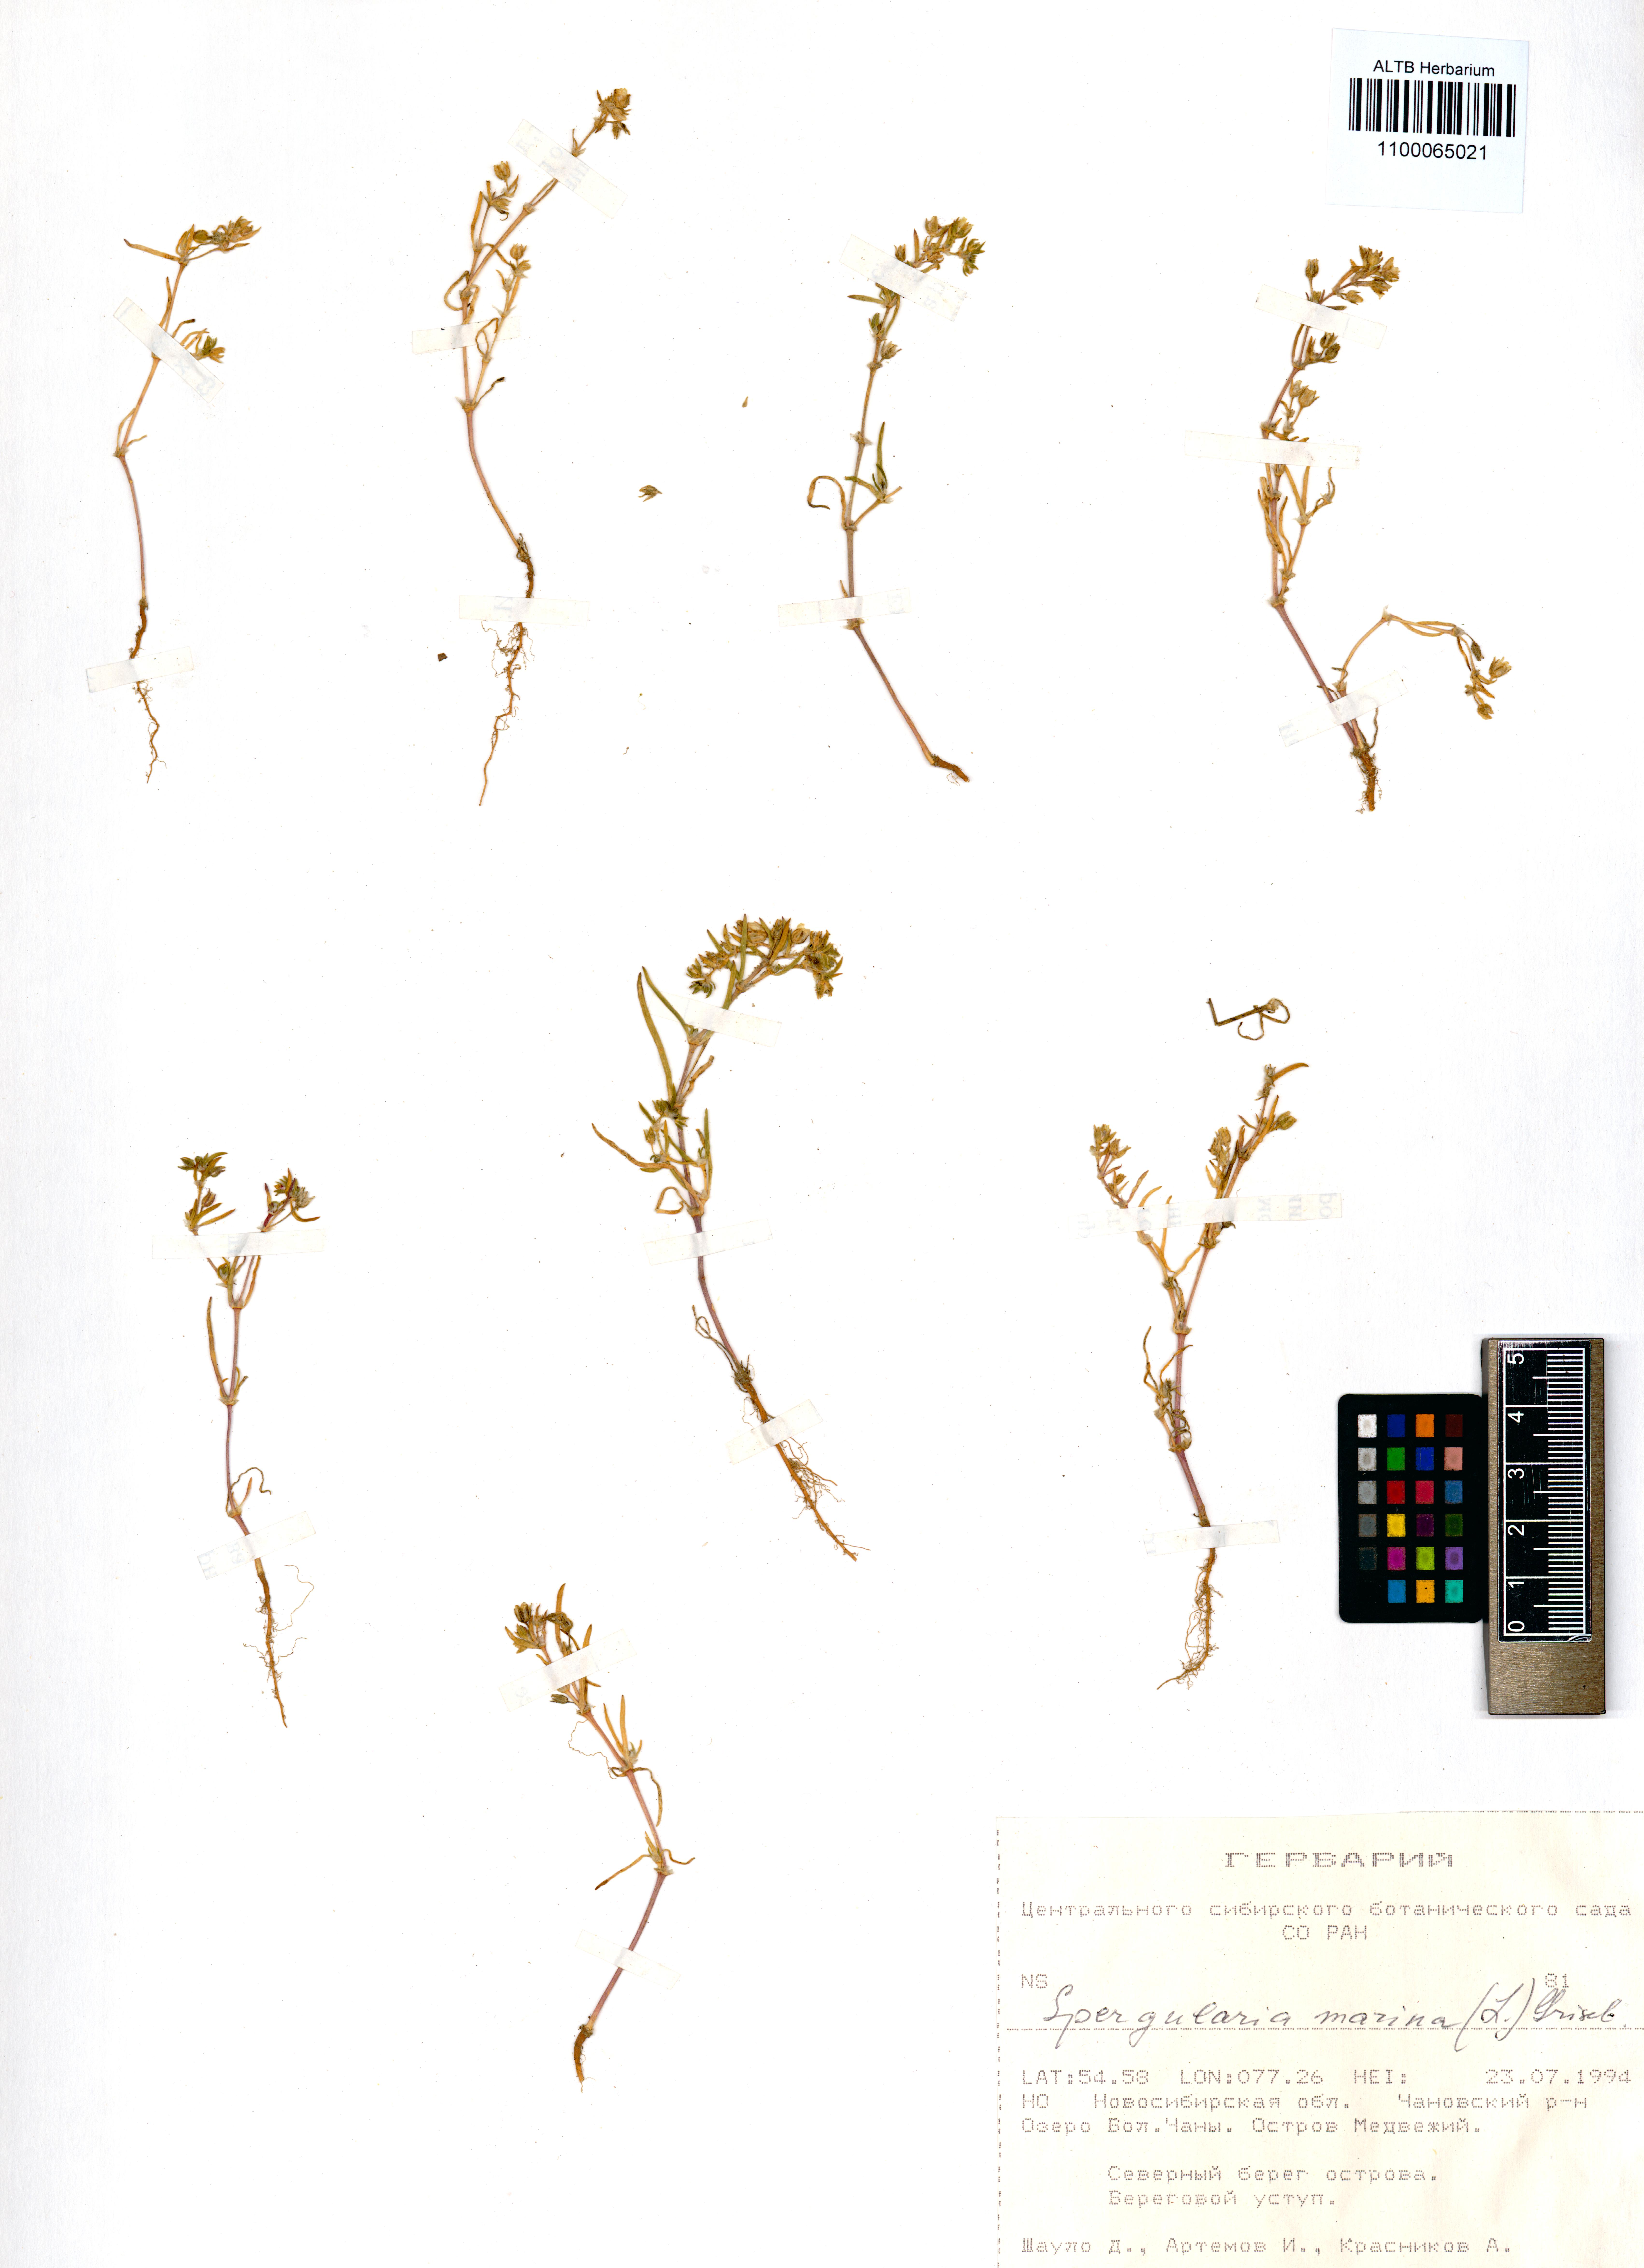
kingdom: Plantae
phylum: Tracheophyta
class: Magnoliopsida
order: Caryophyllales
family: Caryophyllaceae
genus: Spergularia
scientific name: Spergularia marina
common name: Lesser sea-spurrey
